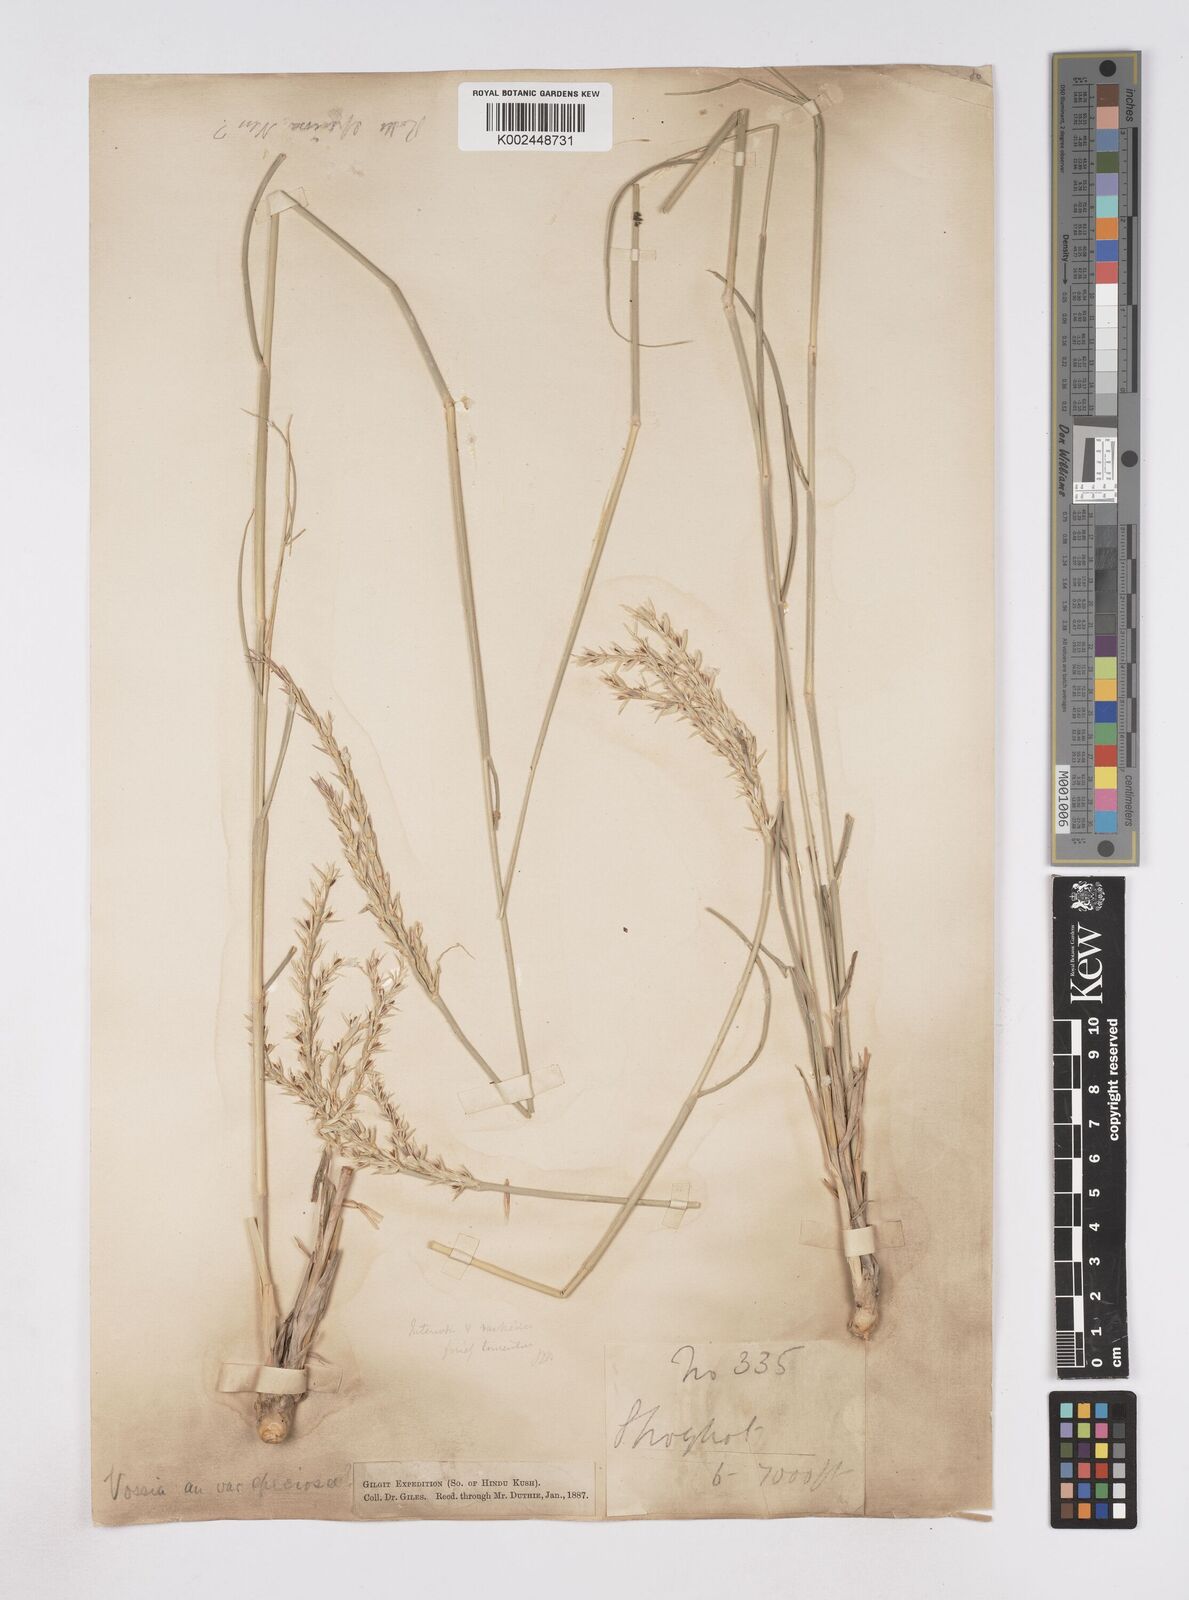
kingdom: Plantae
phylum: Tracheophyta
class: Liliopsida
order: Poales
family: Poaceae
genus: Phacelurus
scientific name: Phacelurus speciosus
